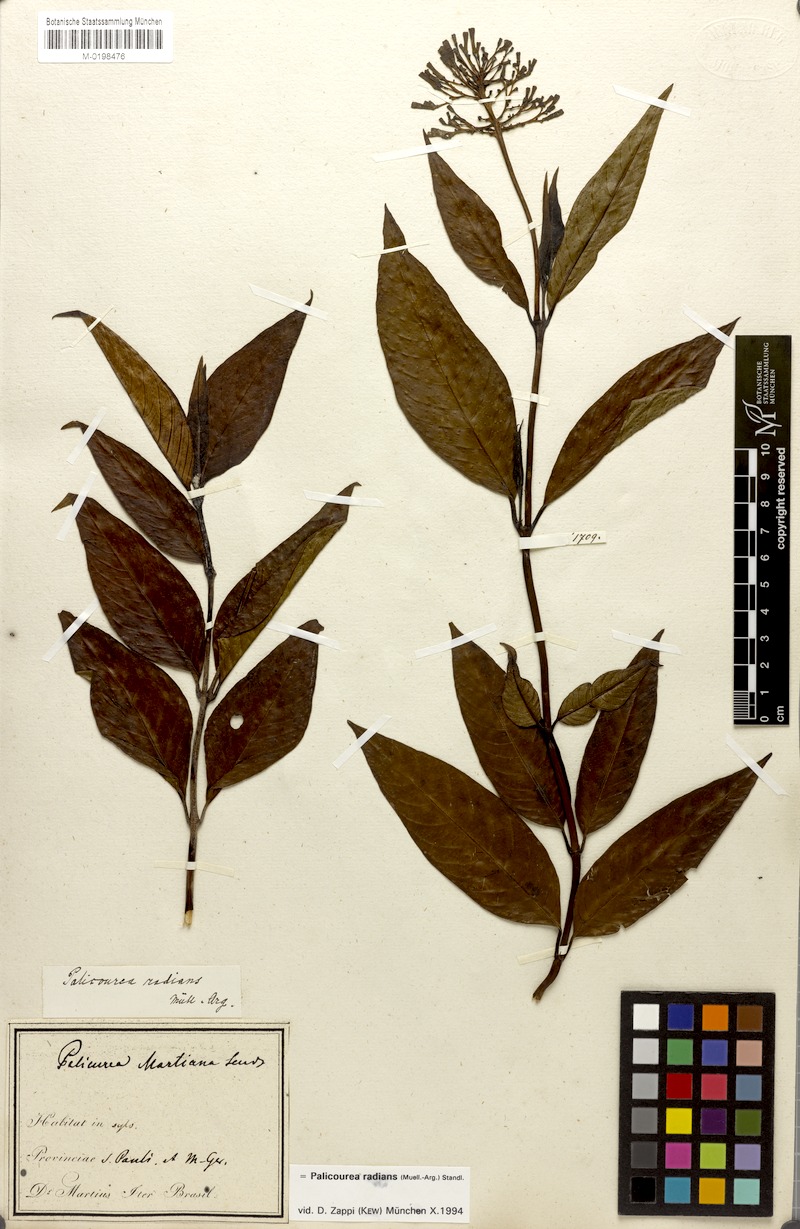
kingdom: Plantae
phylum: Tracheophyta
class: Magnoliopsida
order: Gentianales
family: Rubiaceae
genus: Palicourea
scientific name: Palicourea radians
